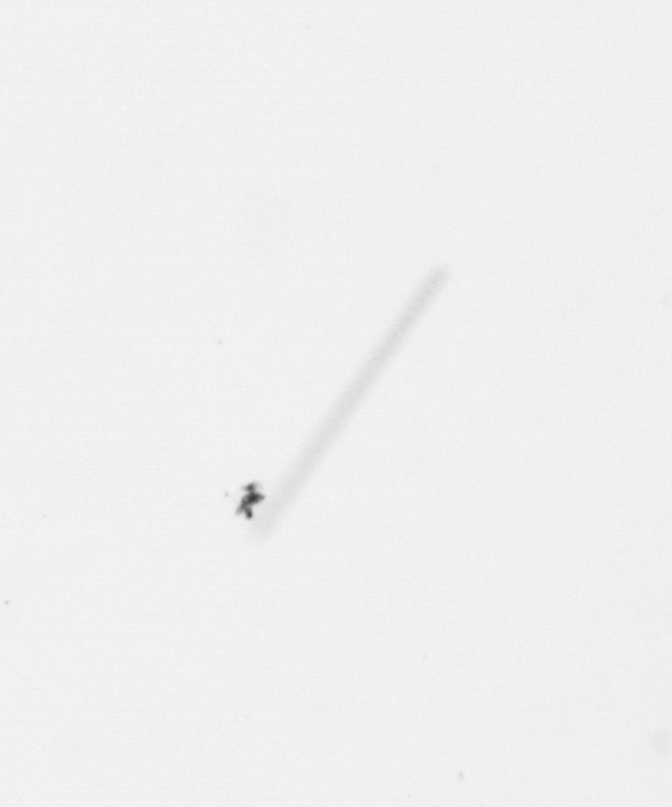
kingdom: Chromista
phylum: Ochrophyta
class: Bacillariophyceae
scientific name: Bacillariophyceae
